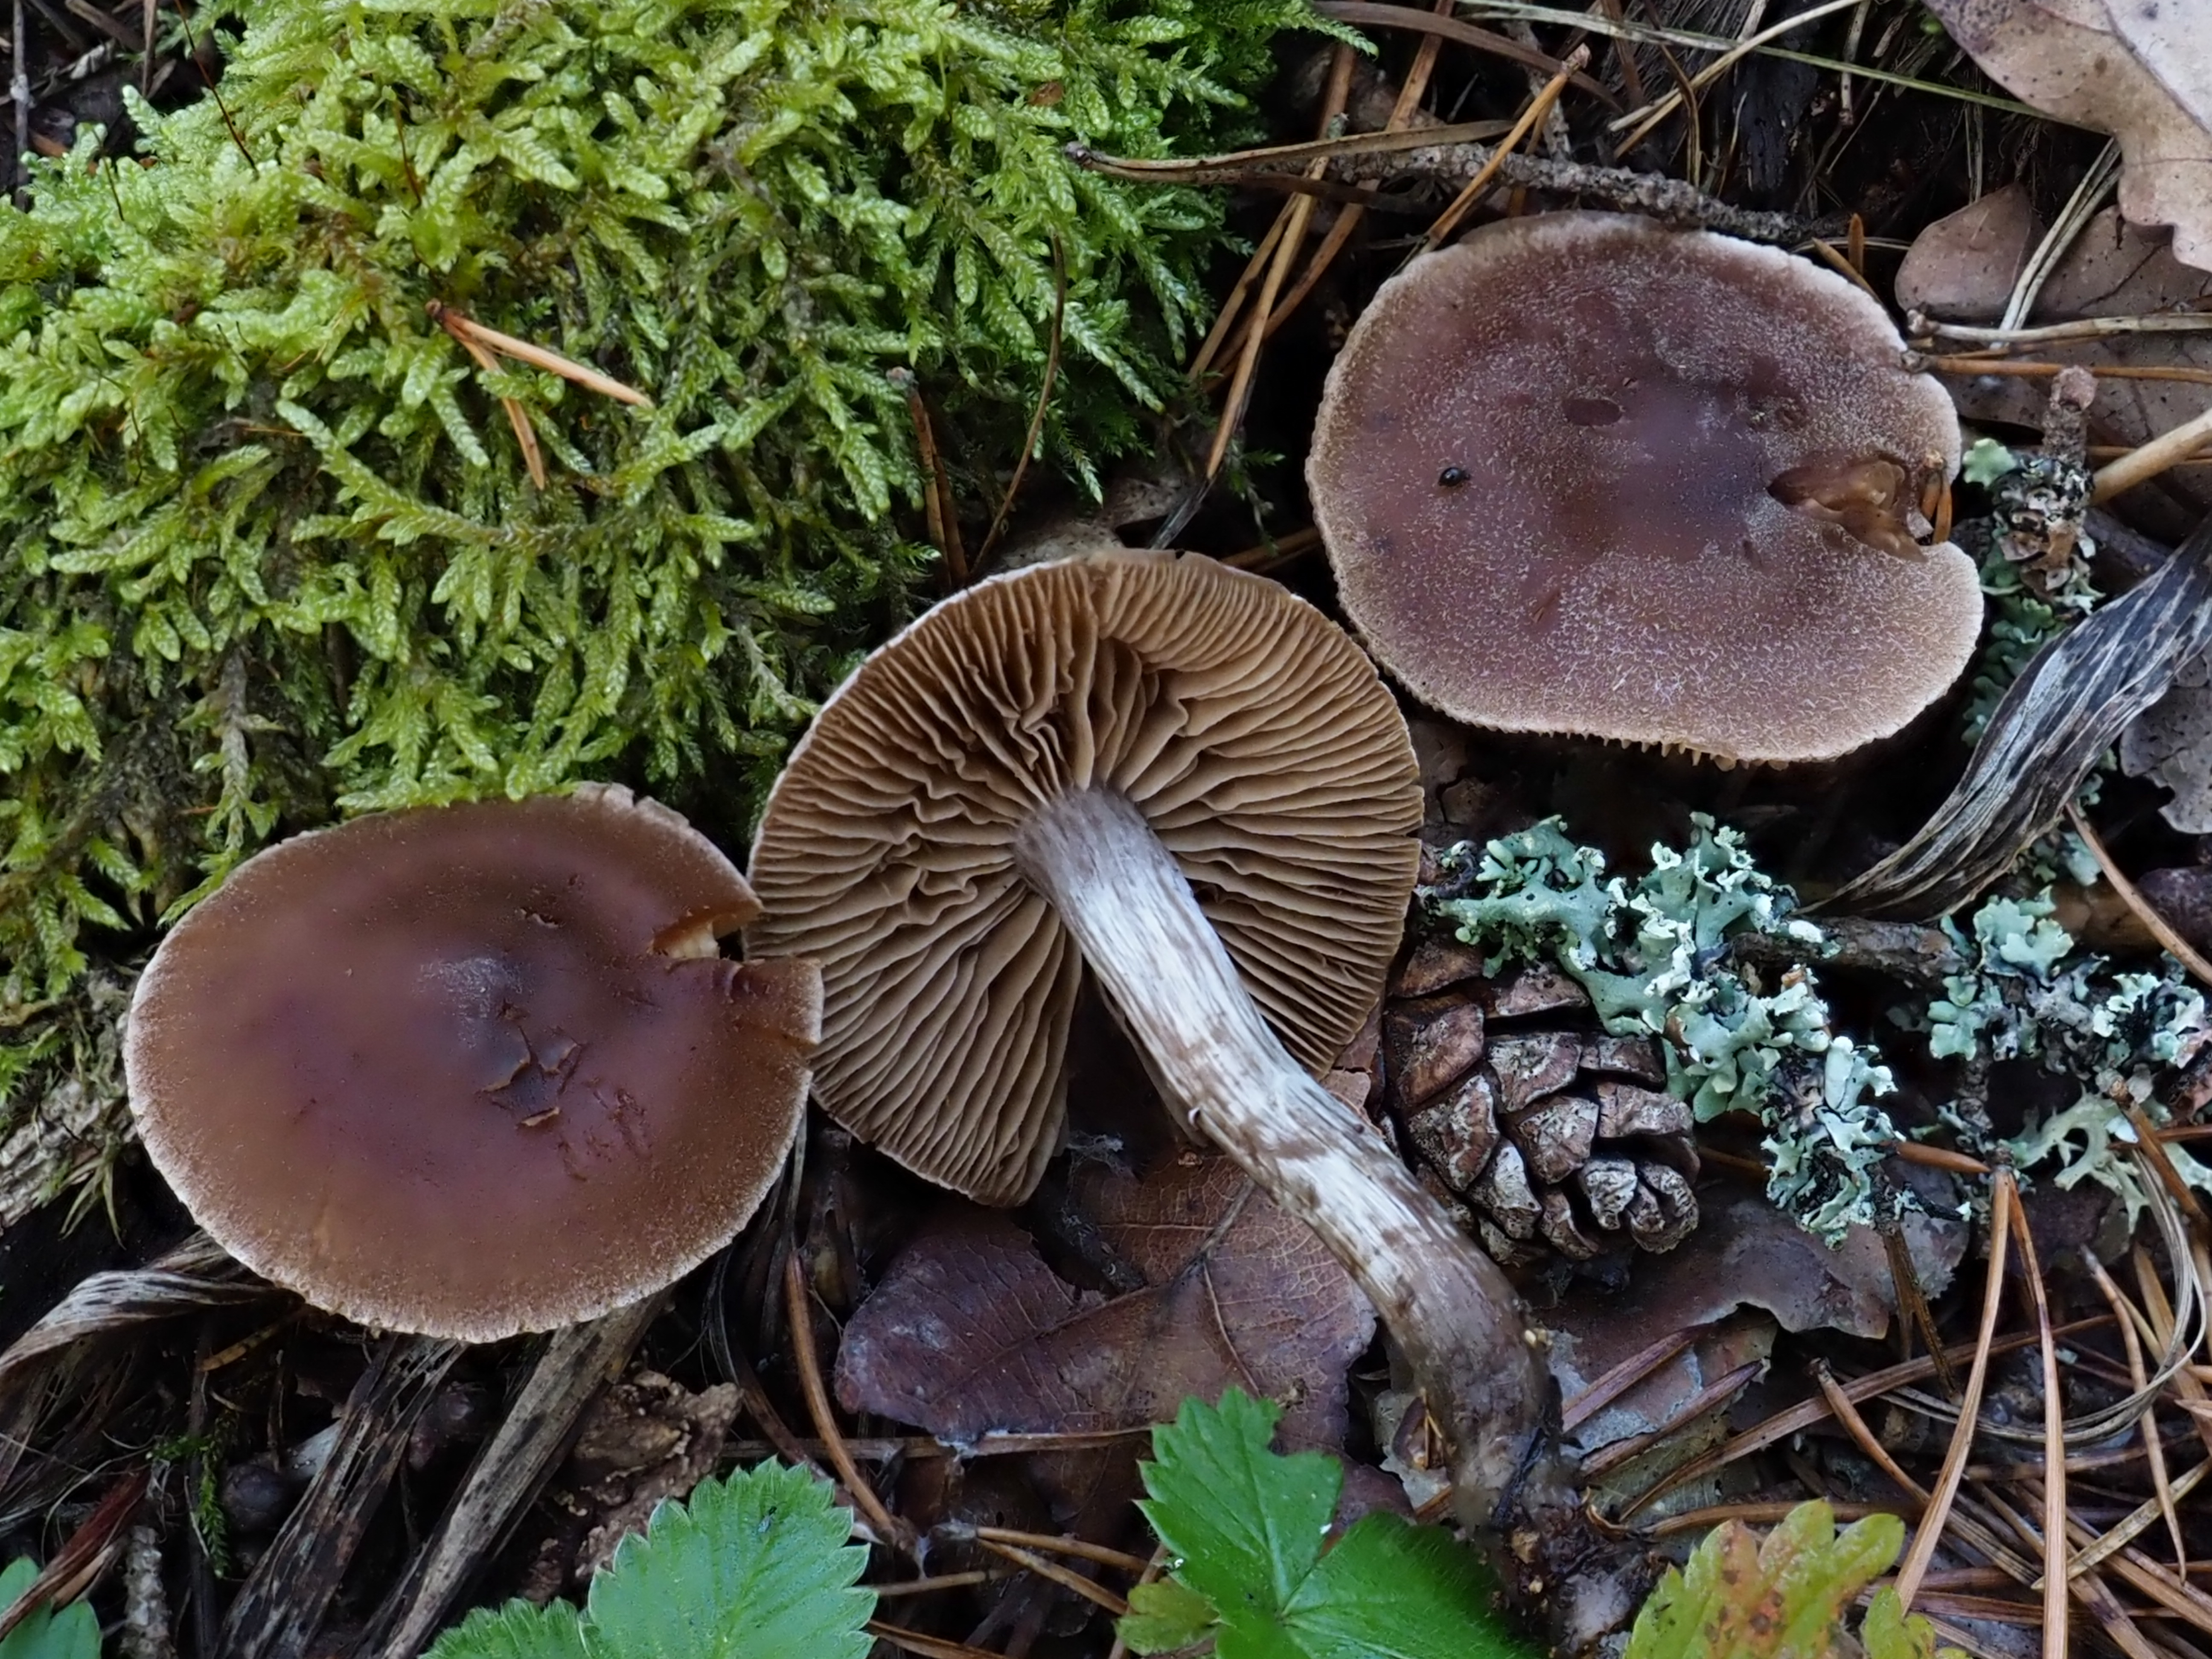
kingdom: Fungi
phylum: Basidiomycota
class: Agaricomycetes
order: Agaricales
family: Cortinariaceae
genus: Cortinarius
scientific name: Cortinarius flexipes
